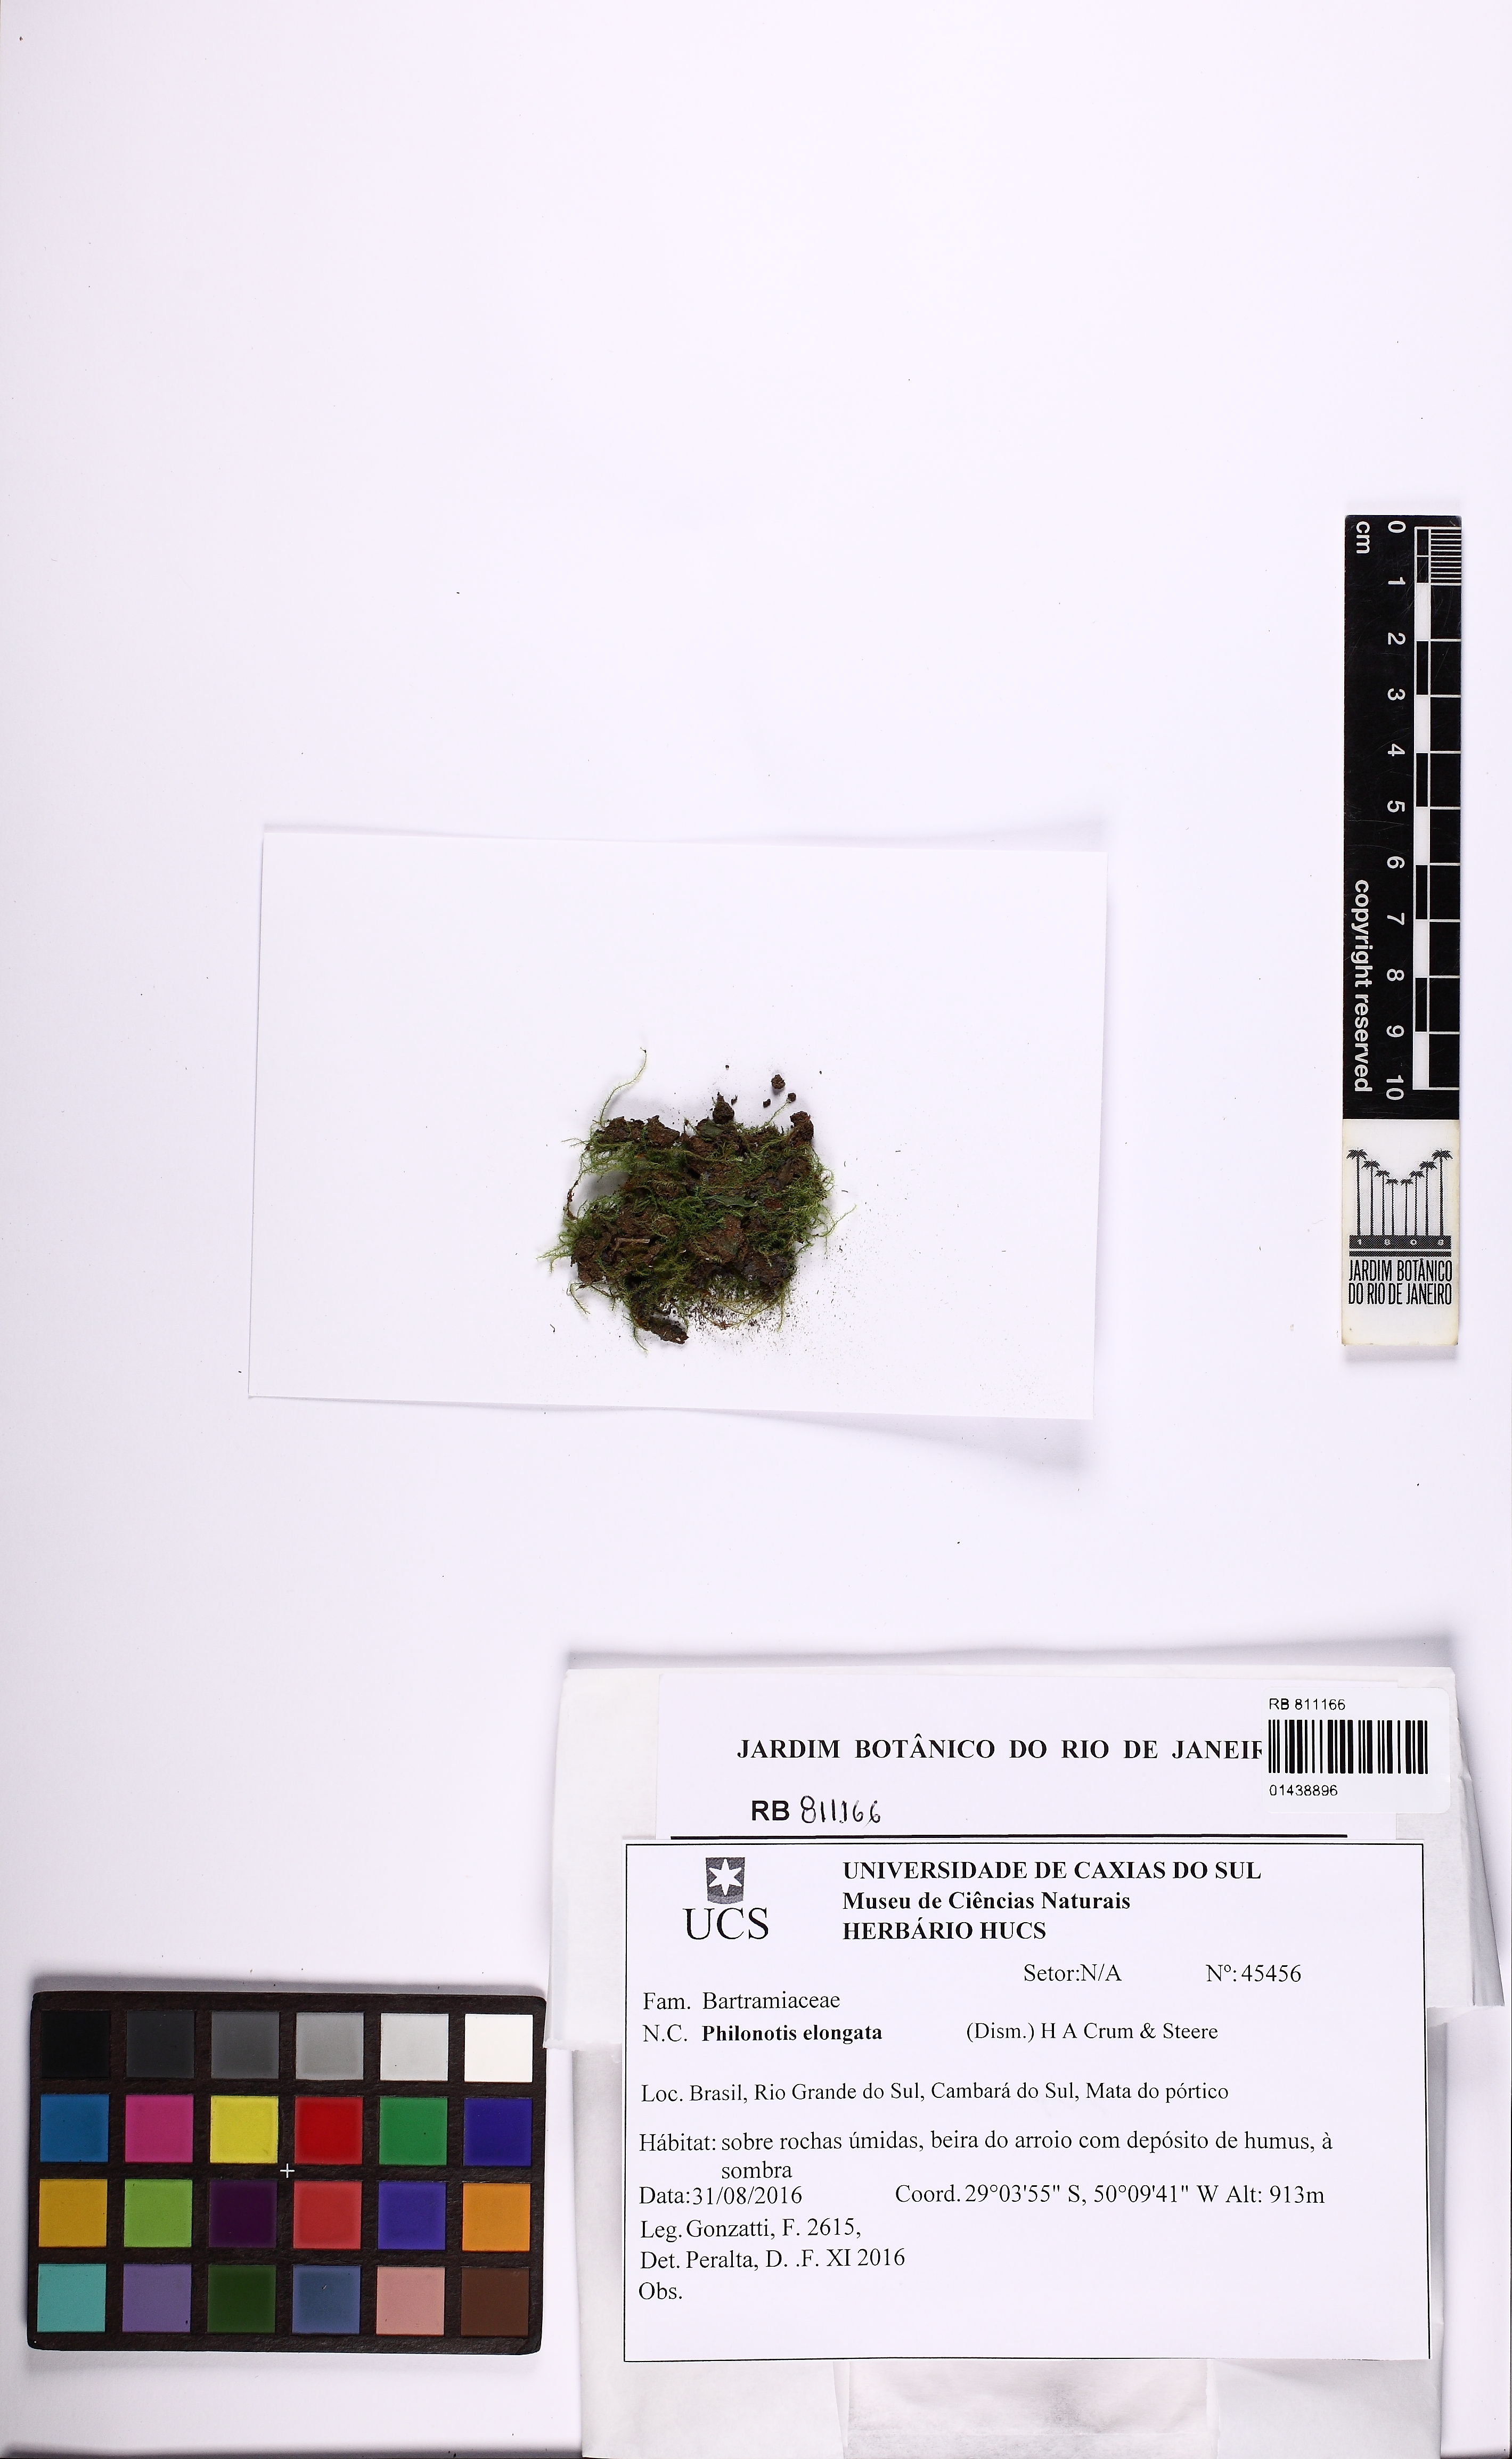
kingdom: Plantae
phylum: Bryophyta
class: Bryopsida
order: Bartramiales
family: Bartramiaceae
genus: Philonotis
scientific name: Philonotis elongata
